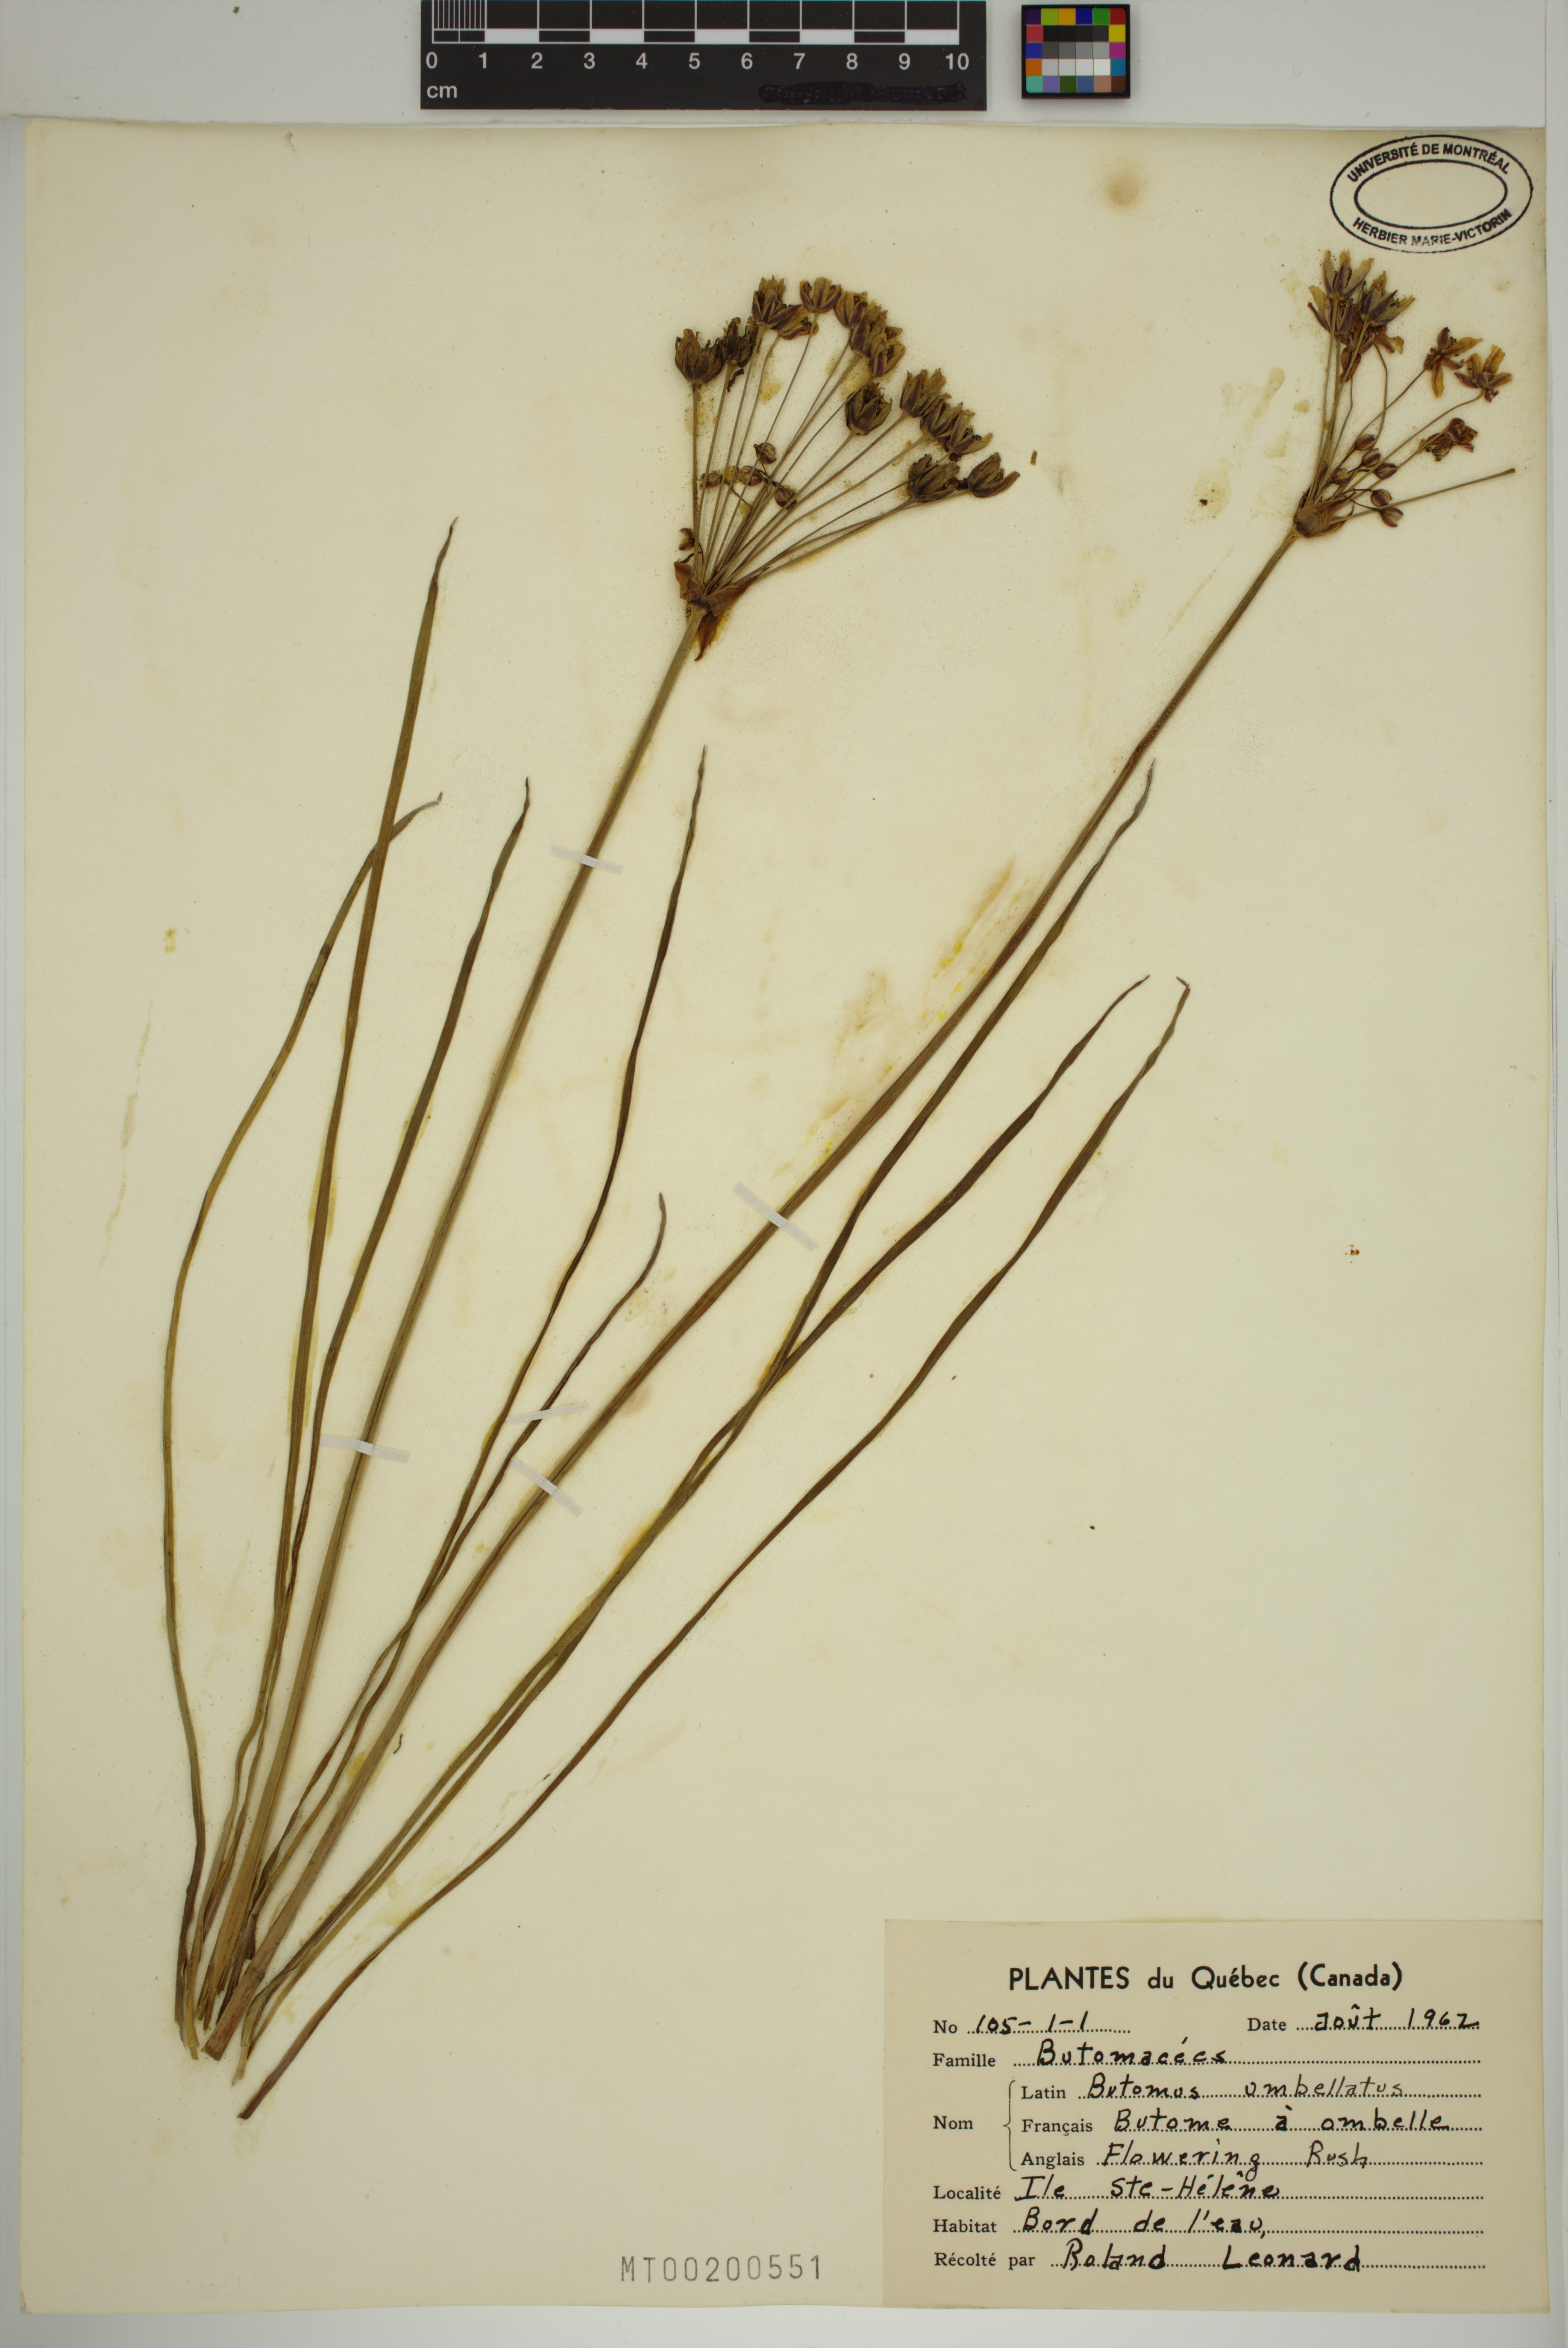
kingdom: Plantae
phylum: Tracheophyta
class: Liliopsida
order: Alismatales
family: Butomaceae
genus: Butomus
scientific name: Butomus umbellatus
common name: Flowering-rush
